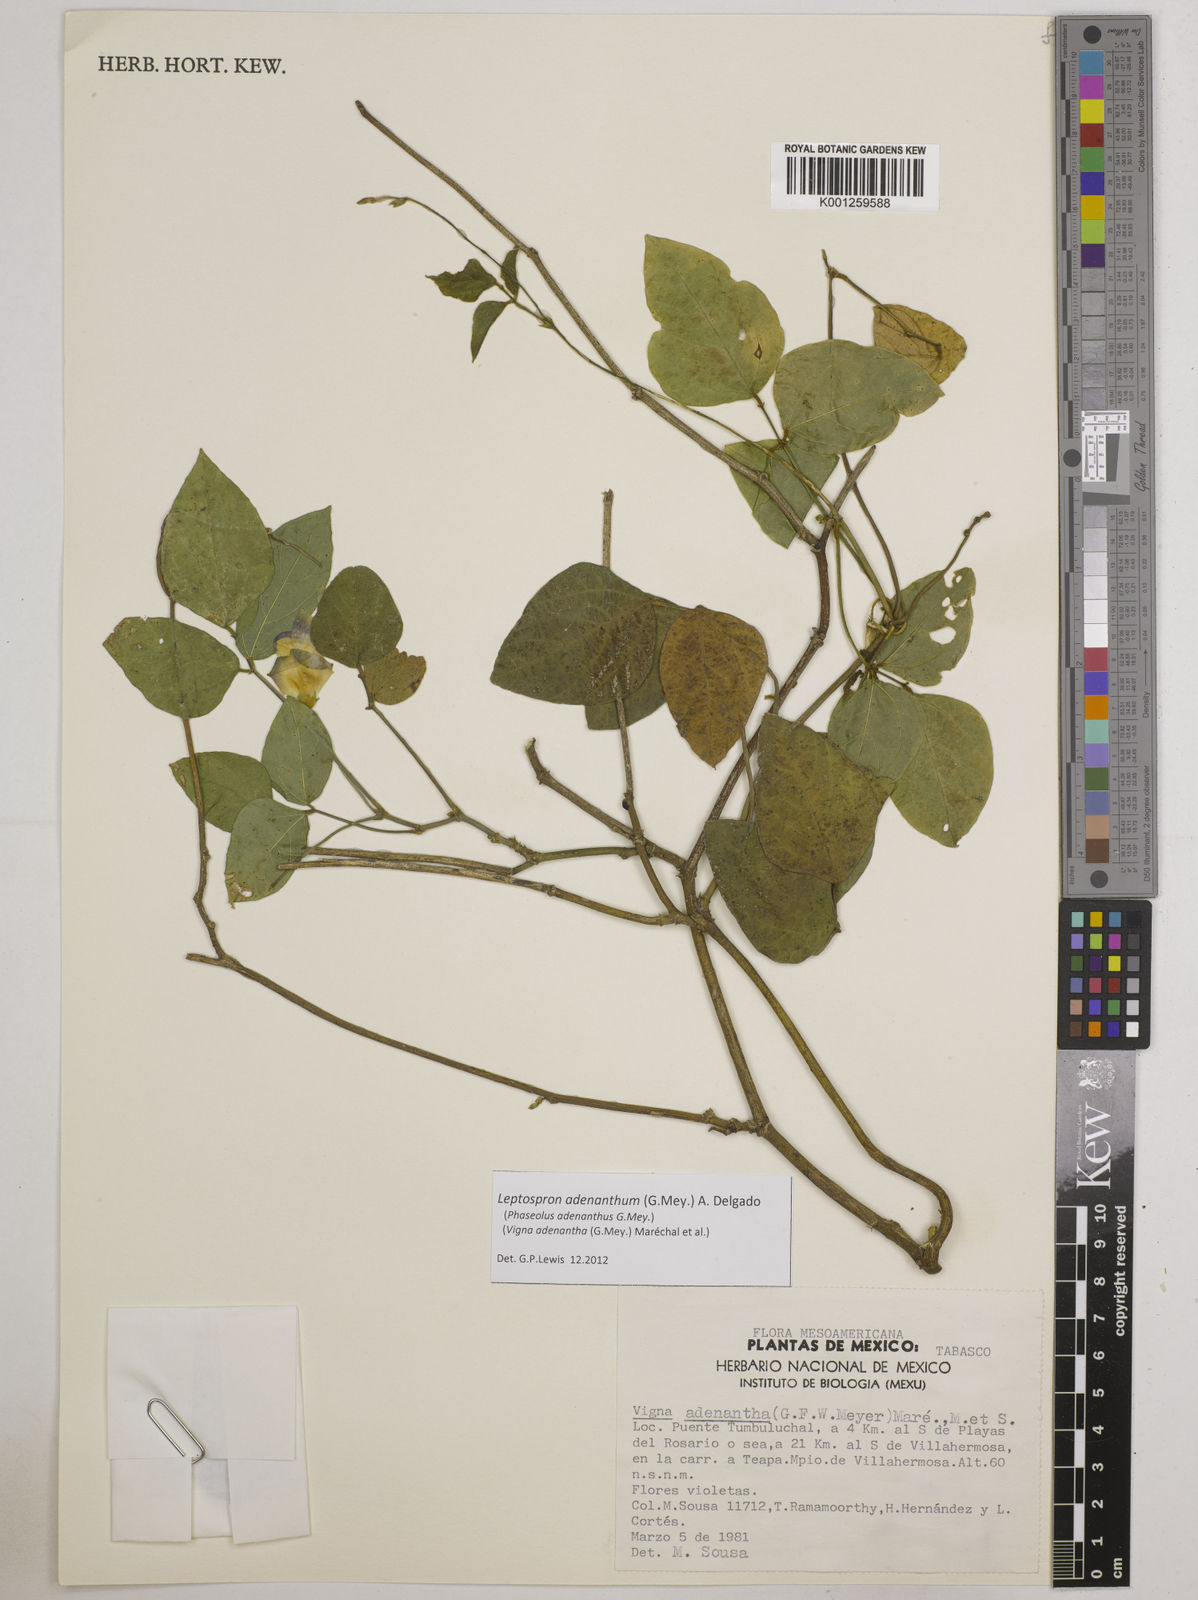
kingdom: Plantae
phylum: Tracheophyta
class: Magnoliopsida
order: Fabales
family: Fabaceae
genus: Leptospron
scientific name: Leptospron adenanthum
